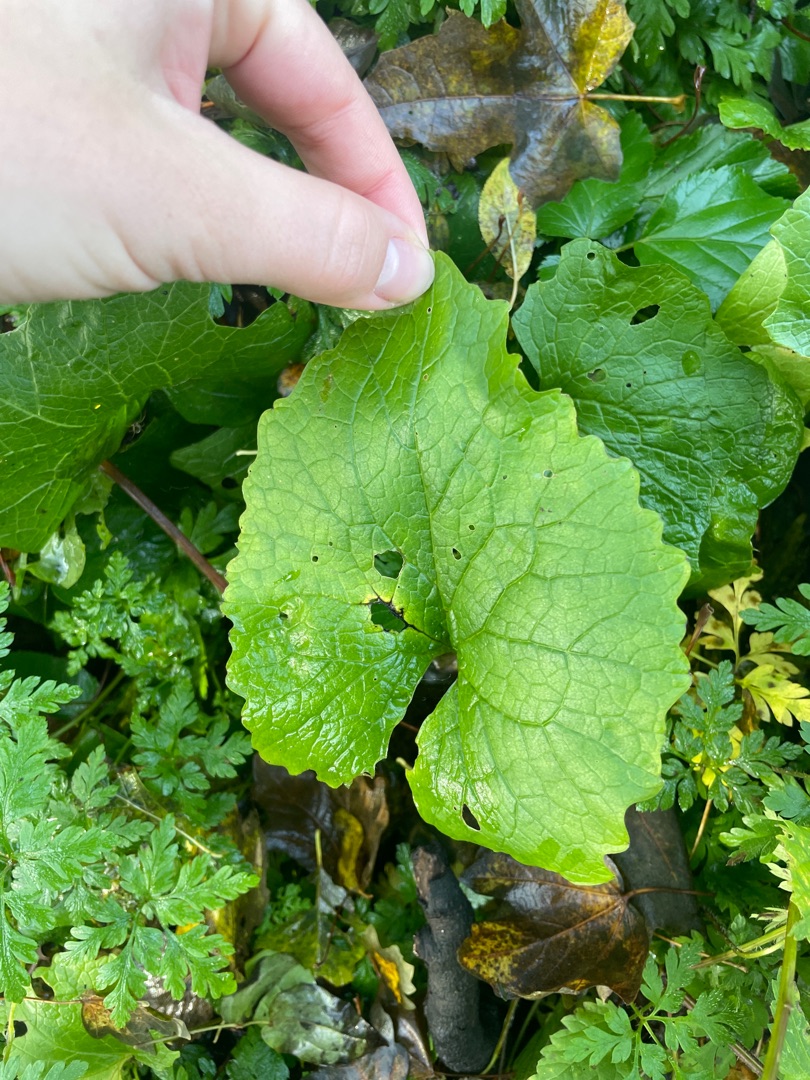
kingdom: Plantae
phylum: Tracheophyta
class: Magnoliopsida
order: Brassicales
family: Brassicaceae
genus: Alliaria
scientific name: Alliaria petiolata
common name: Løgkarse
